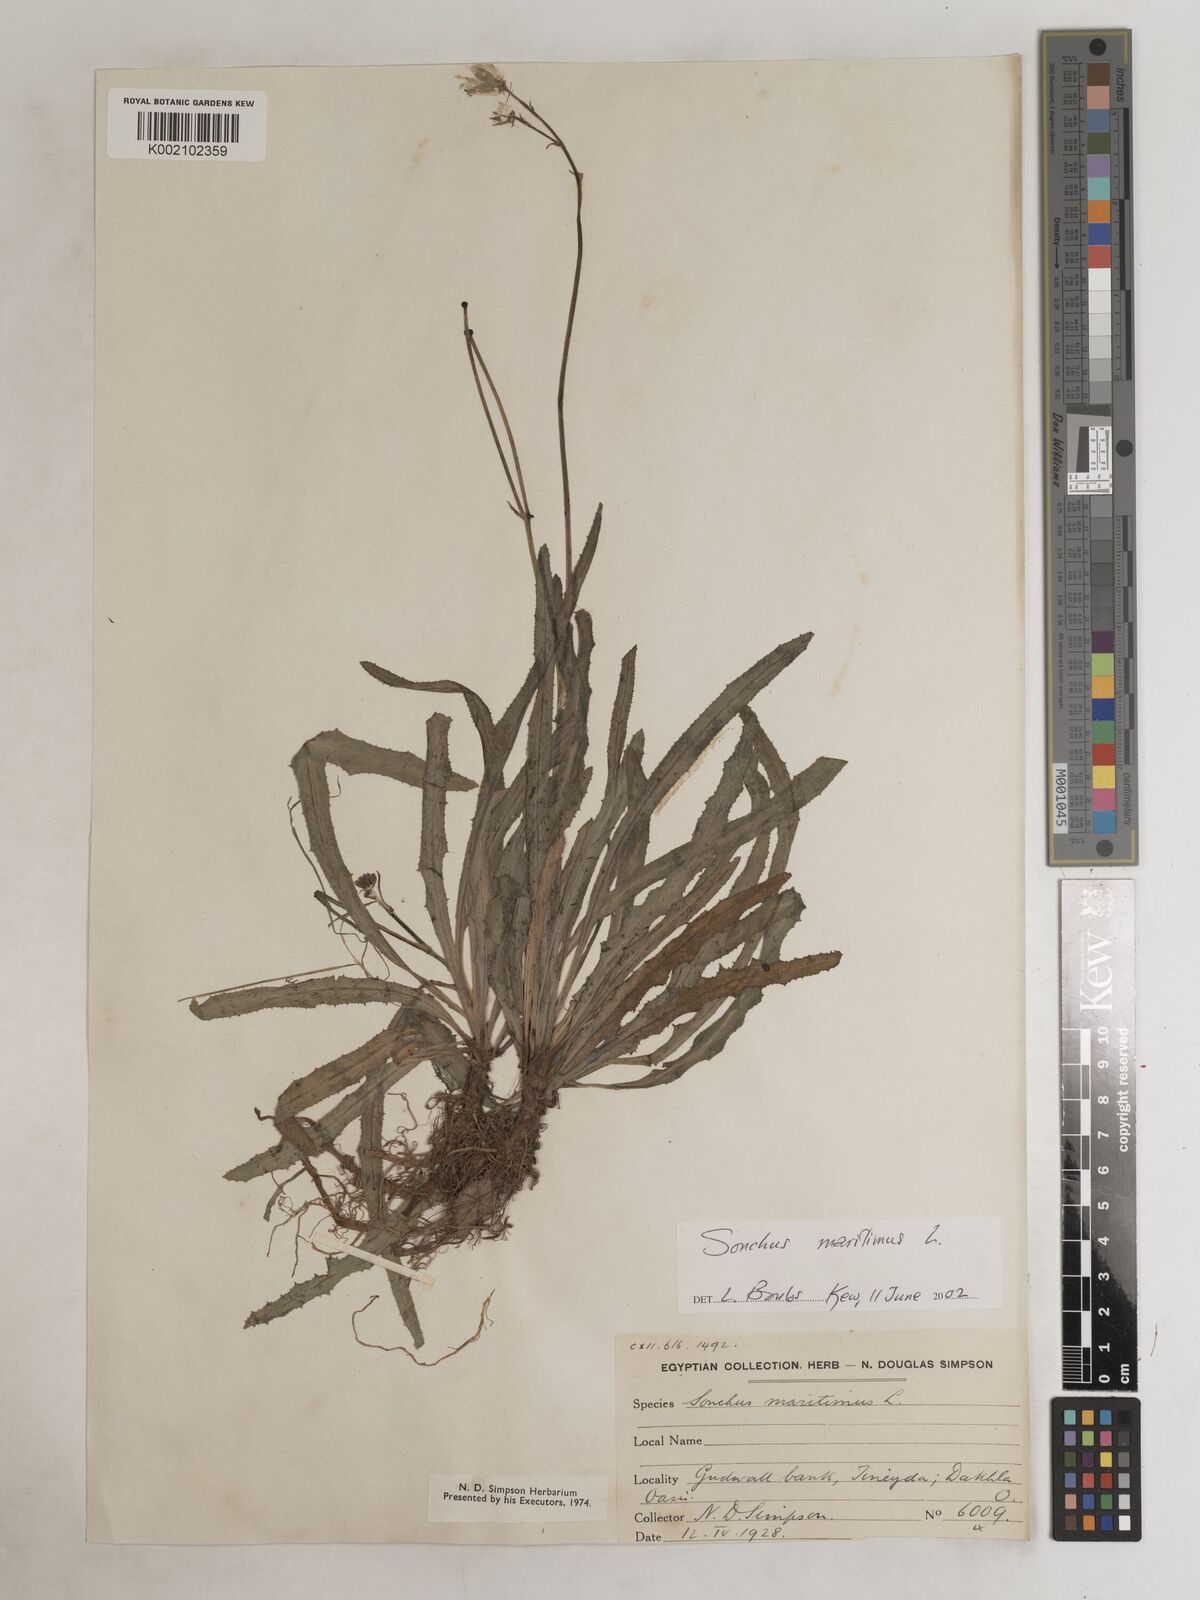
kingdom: Plantae
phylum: Tracheophyta
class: Magnoliopsida
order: Asterales
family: Asteraceae
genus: Sonchus
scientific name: Sonchus maritimus
